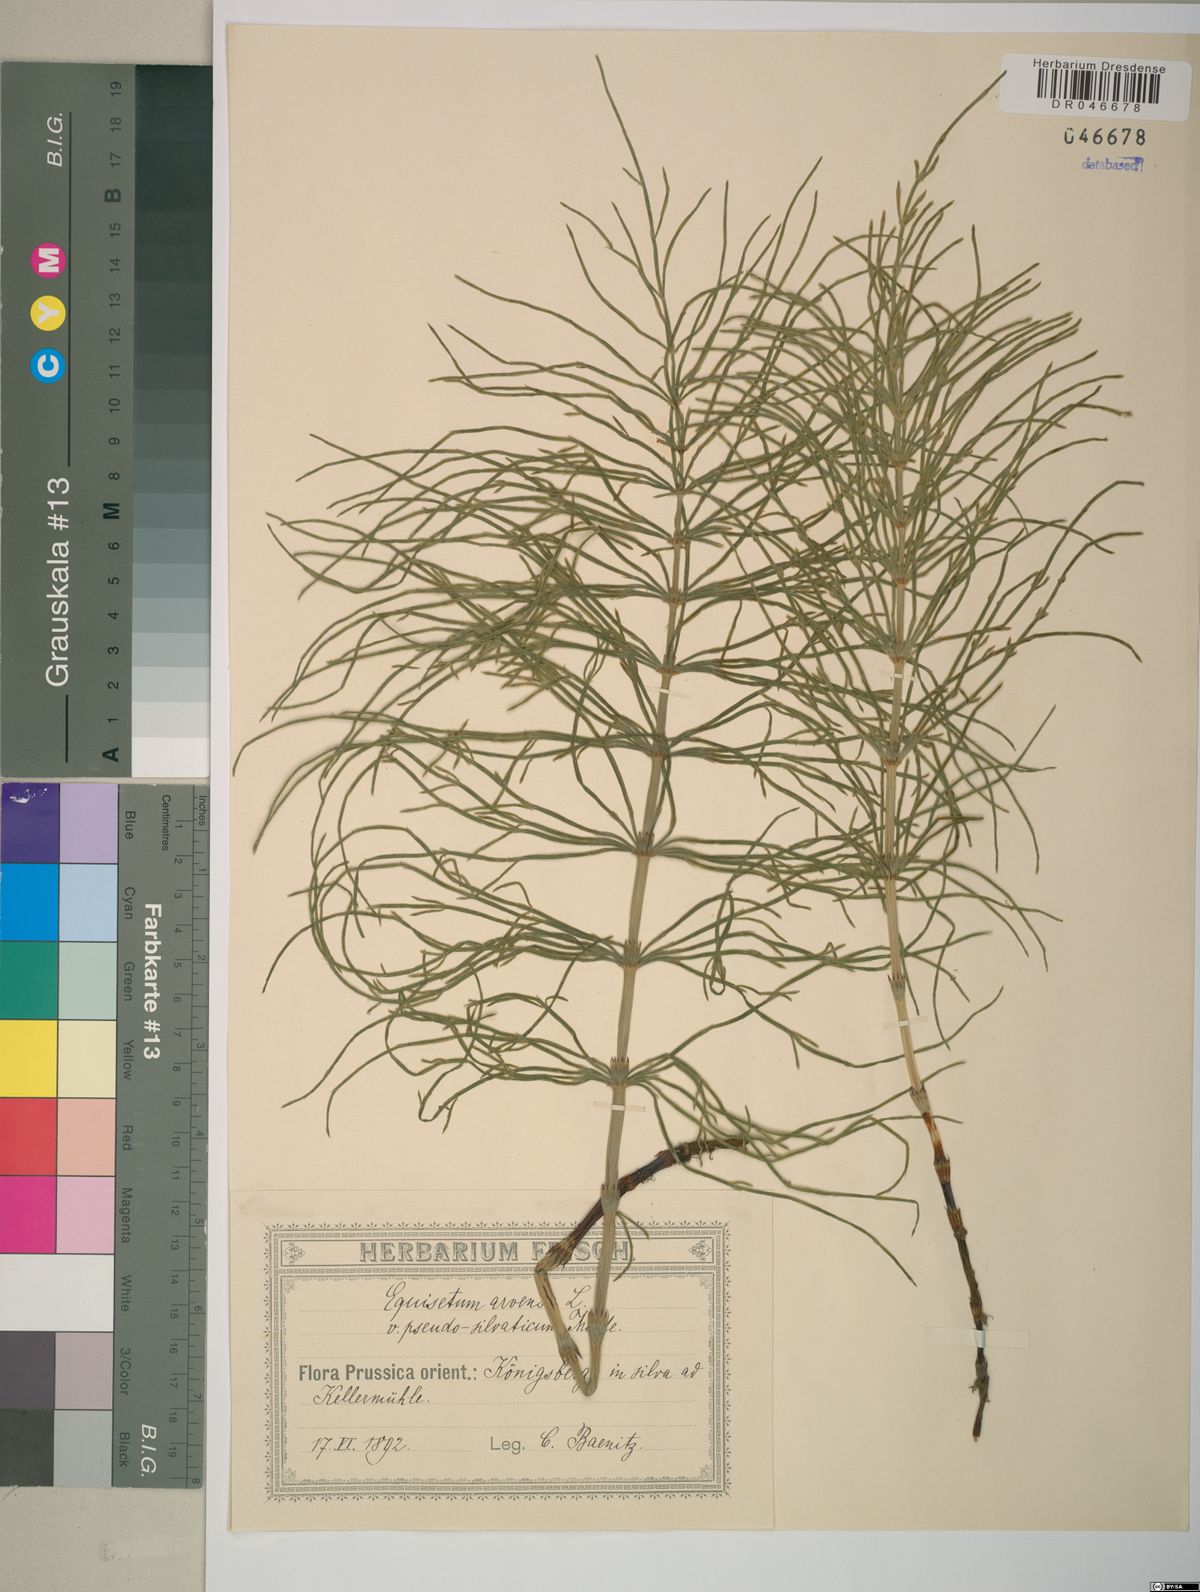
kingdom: Plantae
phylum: Tracheophyta
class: Polypodiopsida
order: Equisetales
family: Equisetaceae
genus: Equisetum
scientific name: Equisetum arvense
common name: Field horsetail
